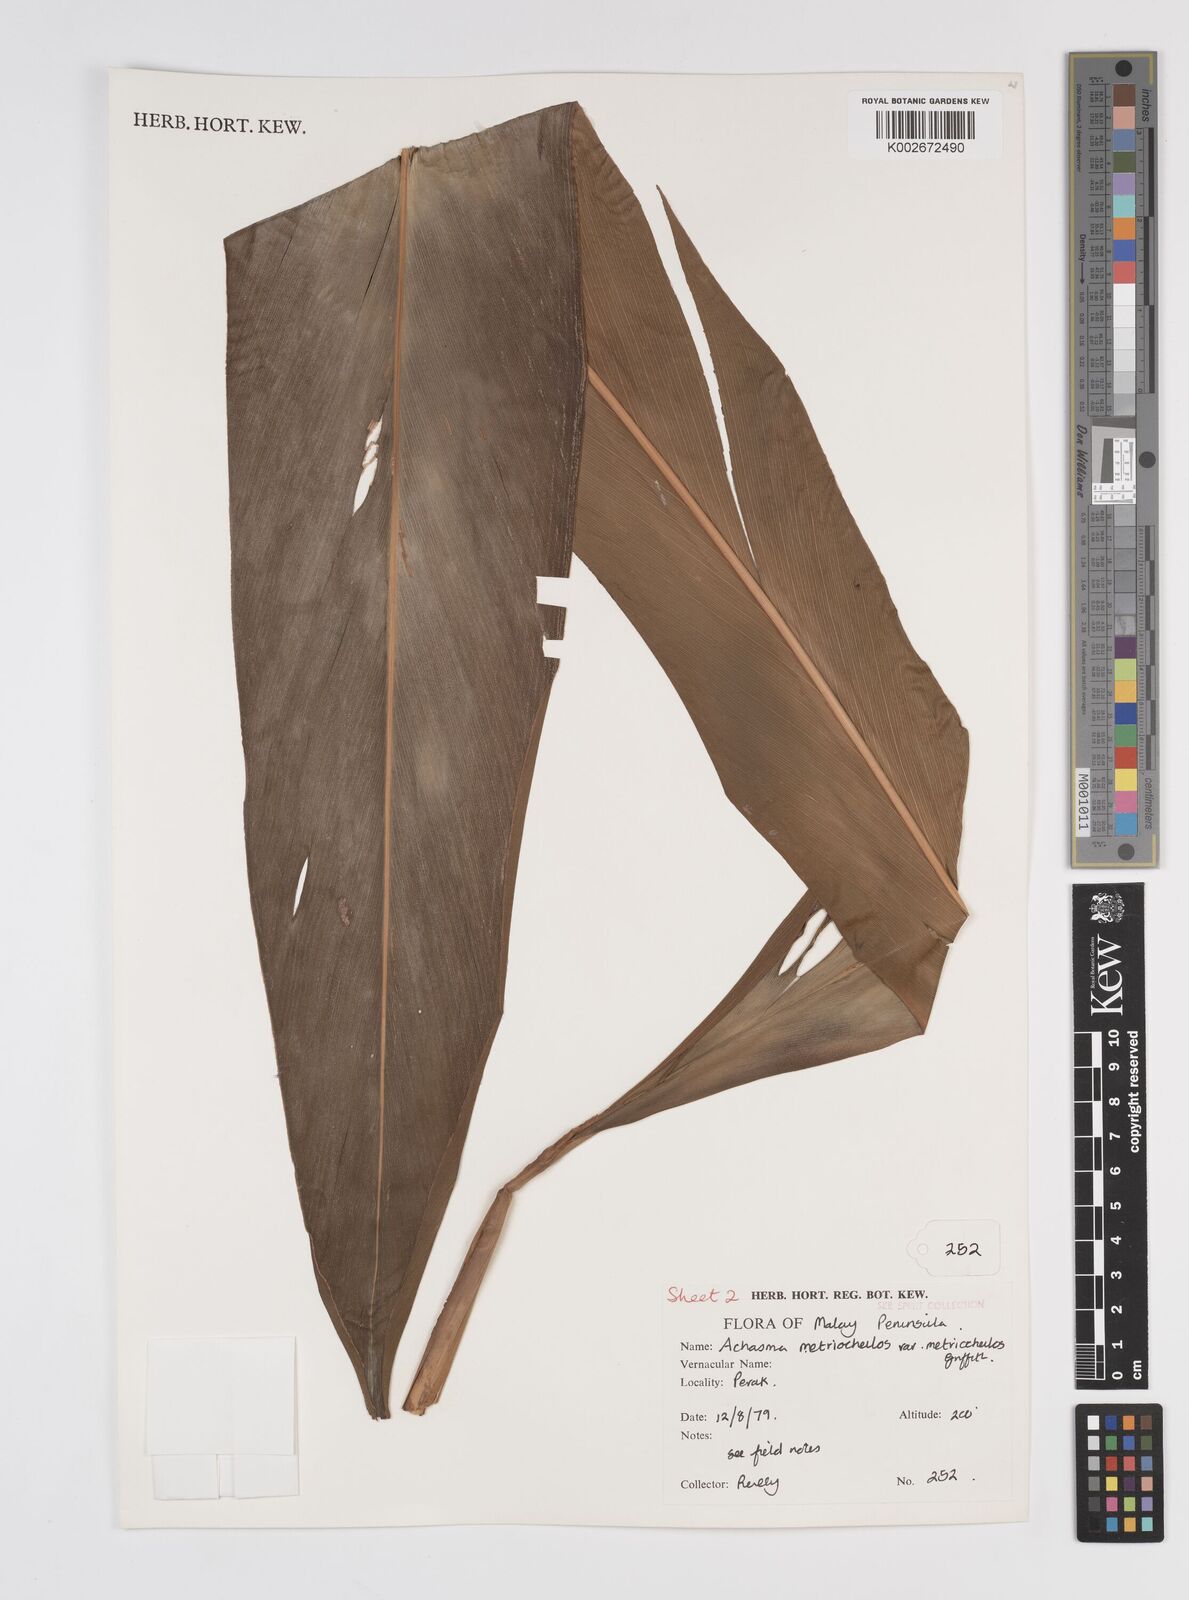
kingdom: Plantae
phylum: Tracheophyta
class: Liliopsida
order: Zingiberales
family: Zingiberaceae
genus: Etlingera
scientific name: Etlingera metriocheilos
